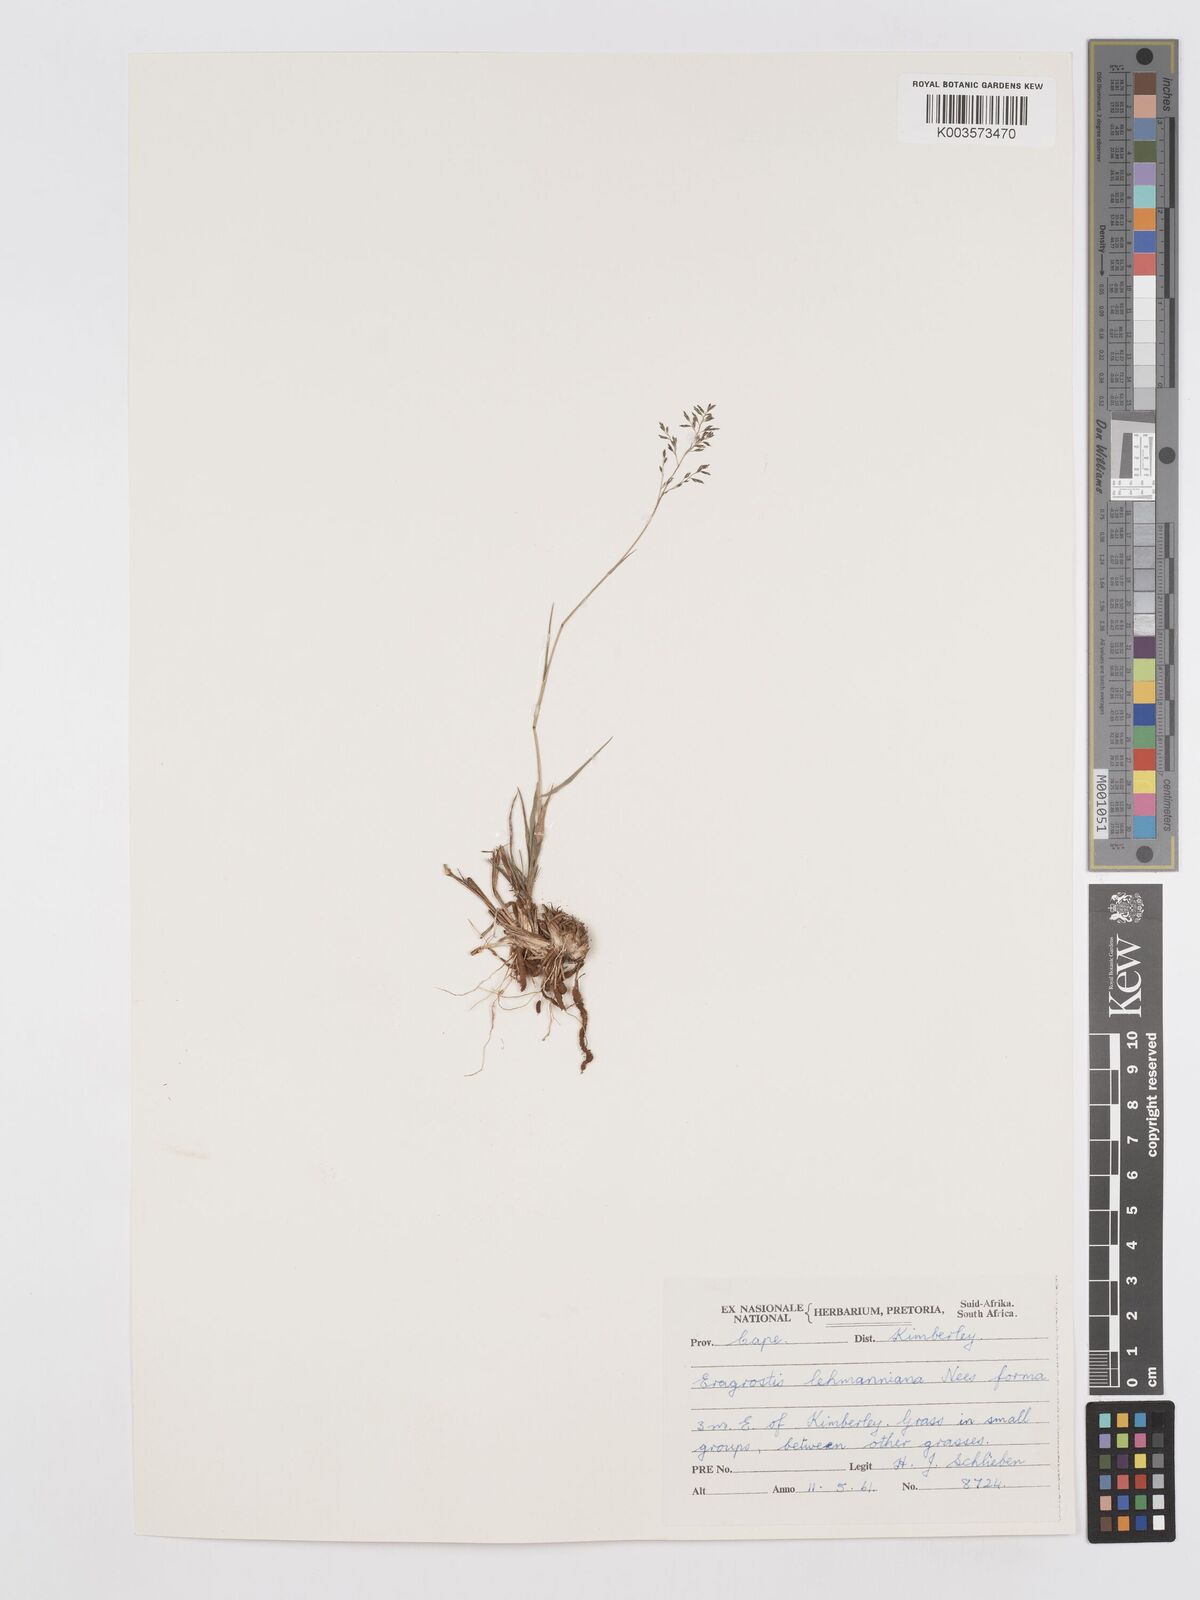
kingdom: Plantae
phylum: Tracheophyta
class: Liliopsida
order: Poales
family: Poaceae
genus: Eragrostis
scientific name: Eragrostis lehmanniana
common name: Lehmann lovegrass
